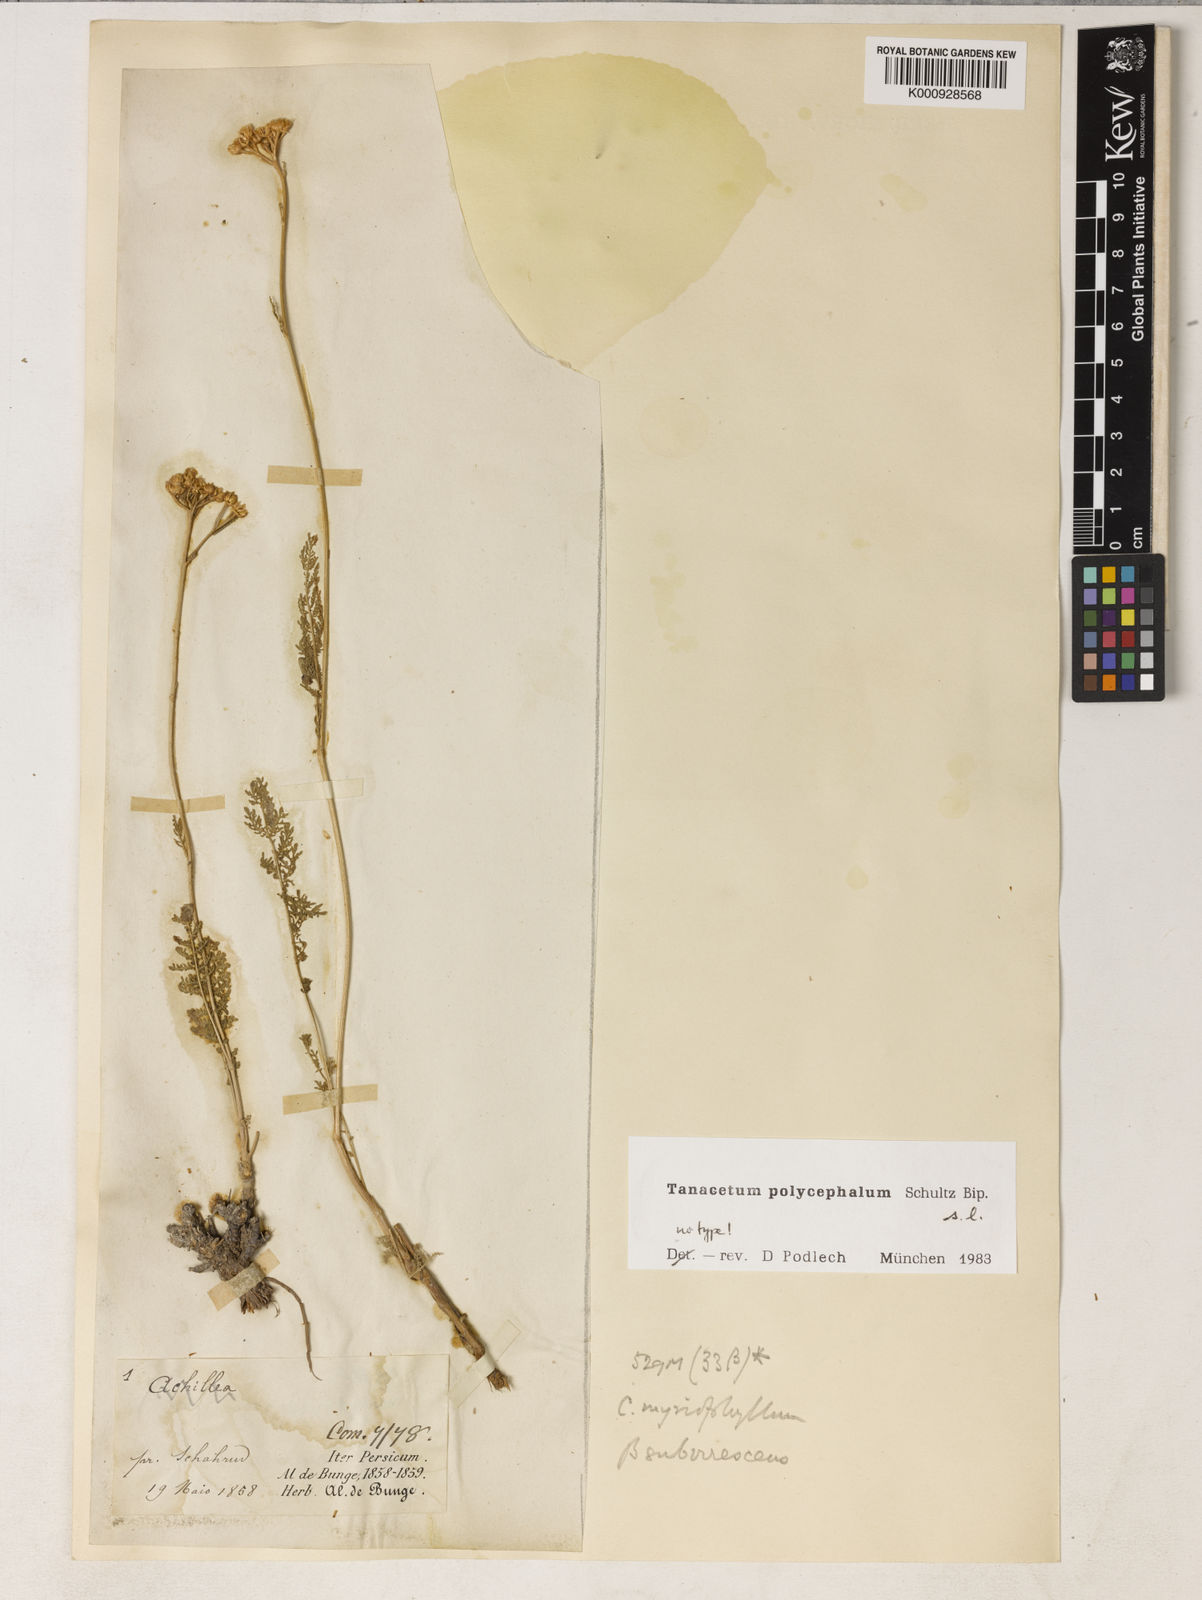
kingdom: Plantae
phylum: Tracheophyta
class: Magnoliopsida
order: Asterales
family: Asteraceae
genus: Tanacetum
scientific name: Tanacetum polycephalum
